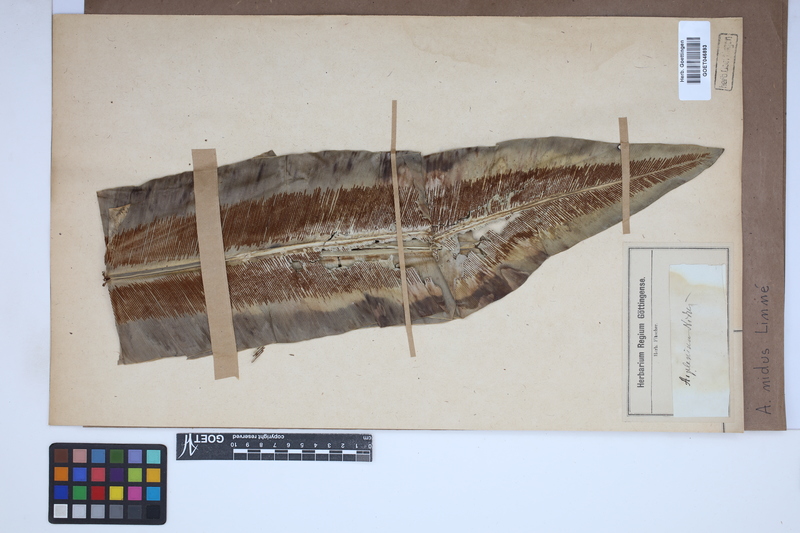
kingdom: Plantae
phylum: Tracheophyta
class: Polypodiopsida
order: Polypodiales
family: Aspleniaceae
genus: Asplenium
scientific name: Asplenium nidus
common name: Bird's-nest fern
